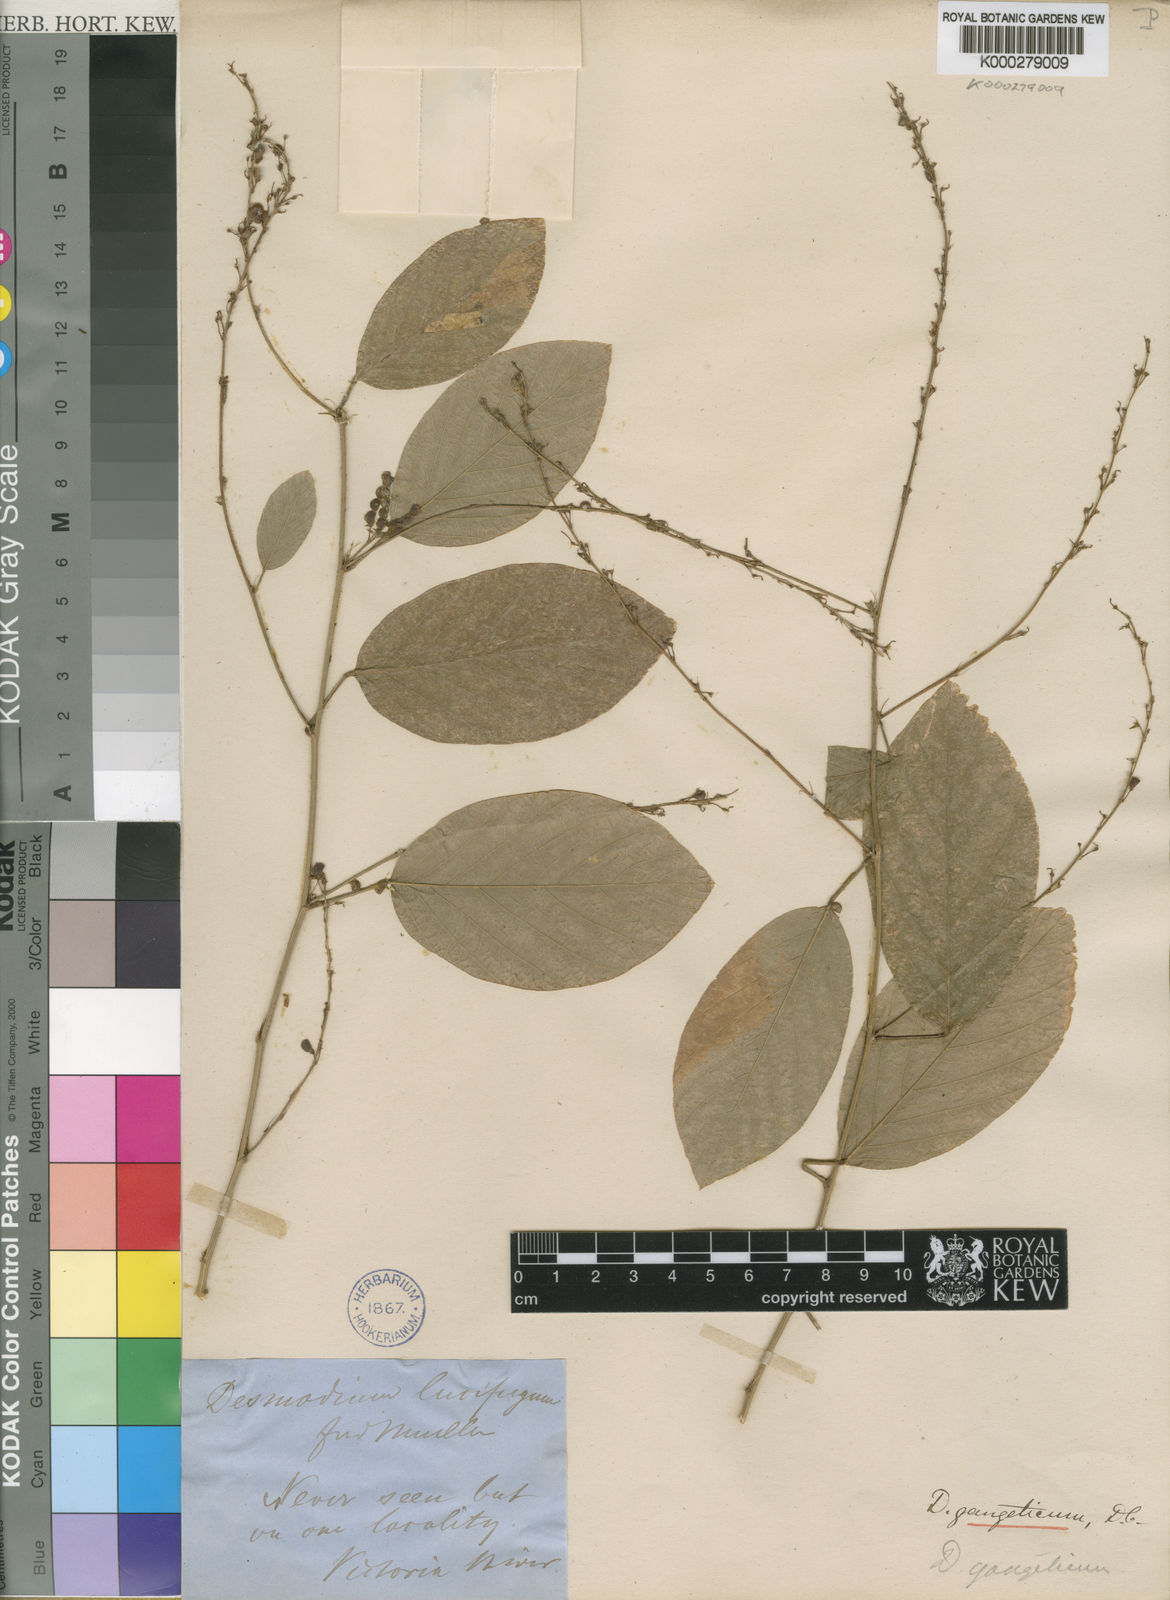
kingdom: Plantae
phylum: Tracheophyta
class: Magnoliopsida
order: Fabales
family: Fabaceae
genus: Pleurolobus
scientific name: Pleurolobus gangeticus
